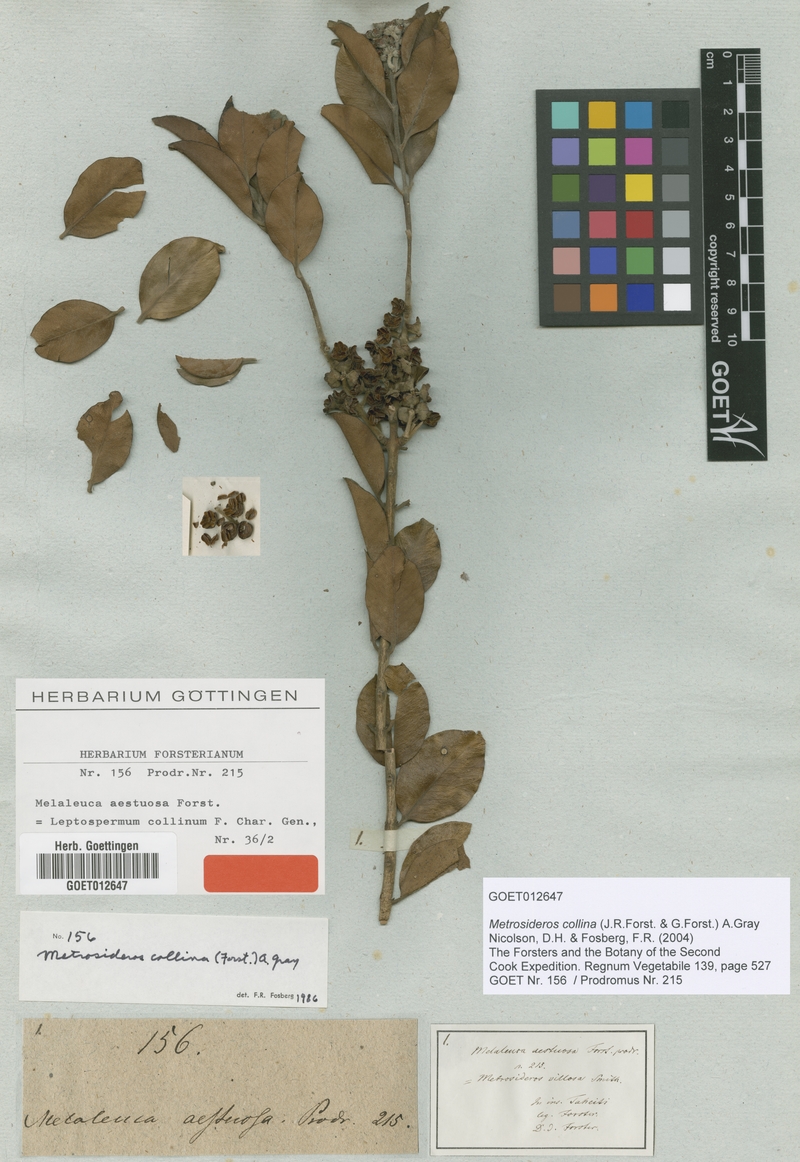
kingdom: Plantae
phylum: Tracheophyta
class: Magnoliopsida
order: Myrtales
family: Myrtaceae
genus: Metrosideros
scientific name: Metrosideros collina
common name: Vunga
